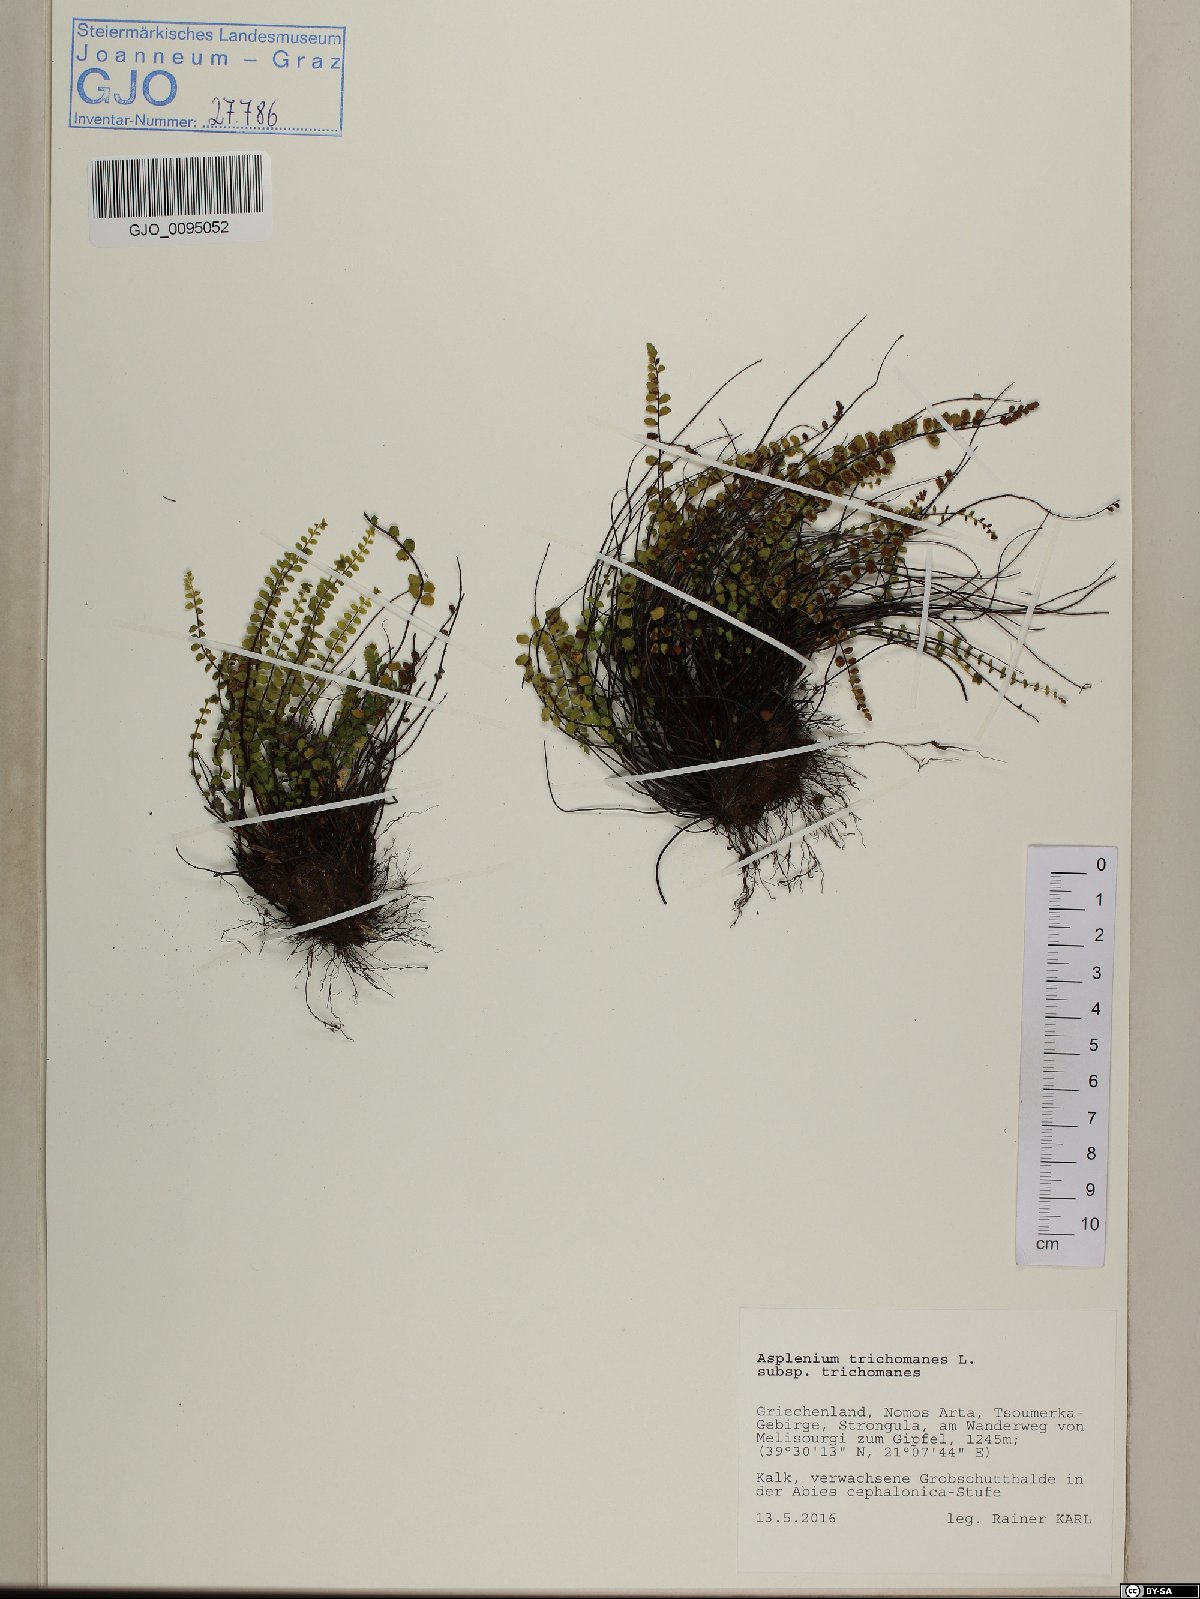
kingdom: Plantae
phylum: Tracheophyta
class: Polypodiopsida
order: Polypodiales
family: Aspleniaceae
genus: Asplenium
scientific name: Asplenium trichomanes
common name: Maidenhair spleenwort
